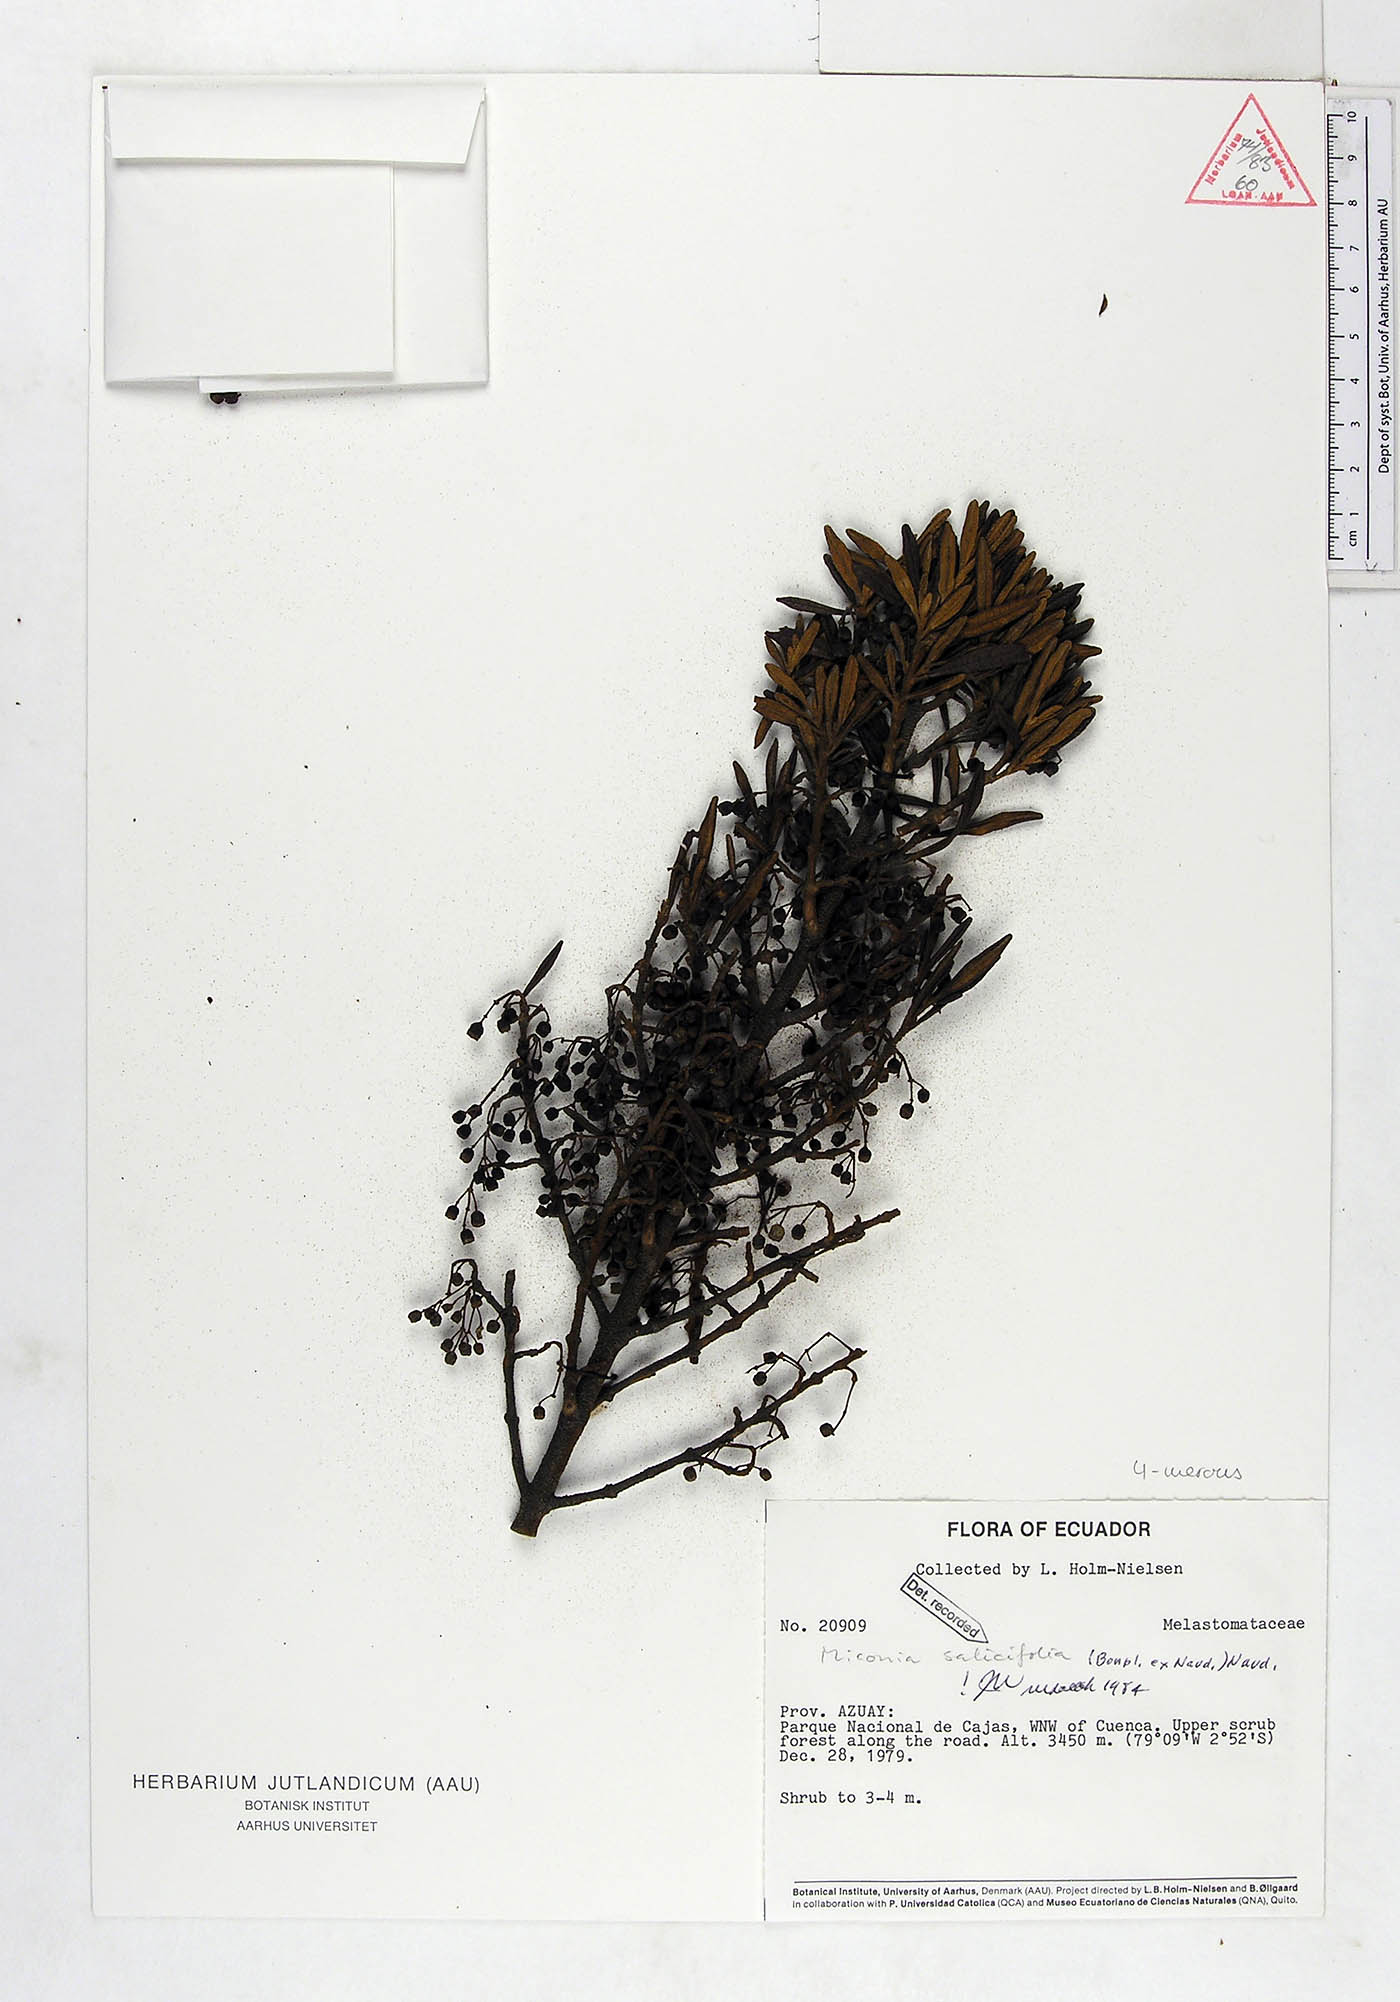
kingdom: Plantae
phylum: Tracheophyta
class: Magnoliopsida
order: Myrtales
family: Melastomataceae
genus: Miconia
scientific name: Miconia salicifolia
